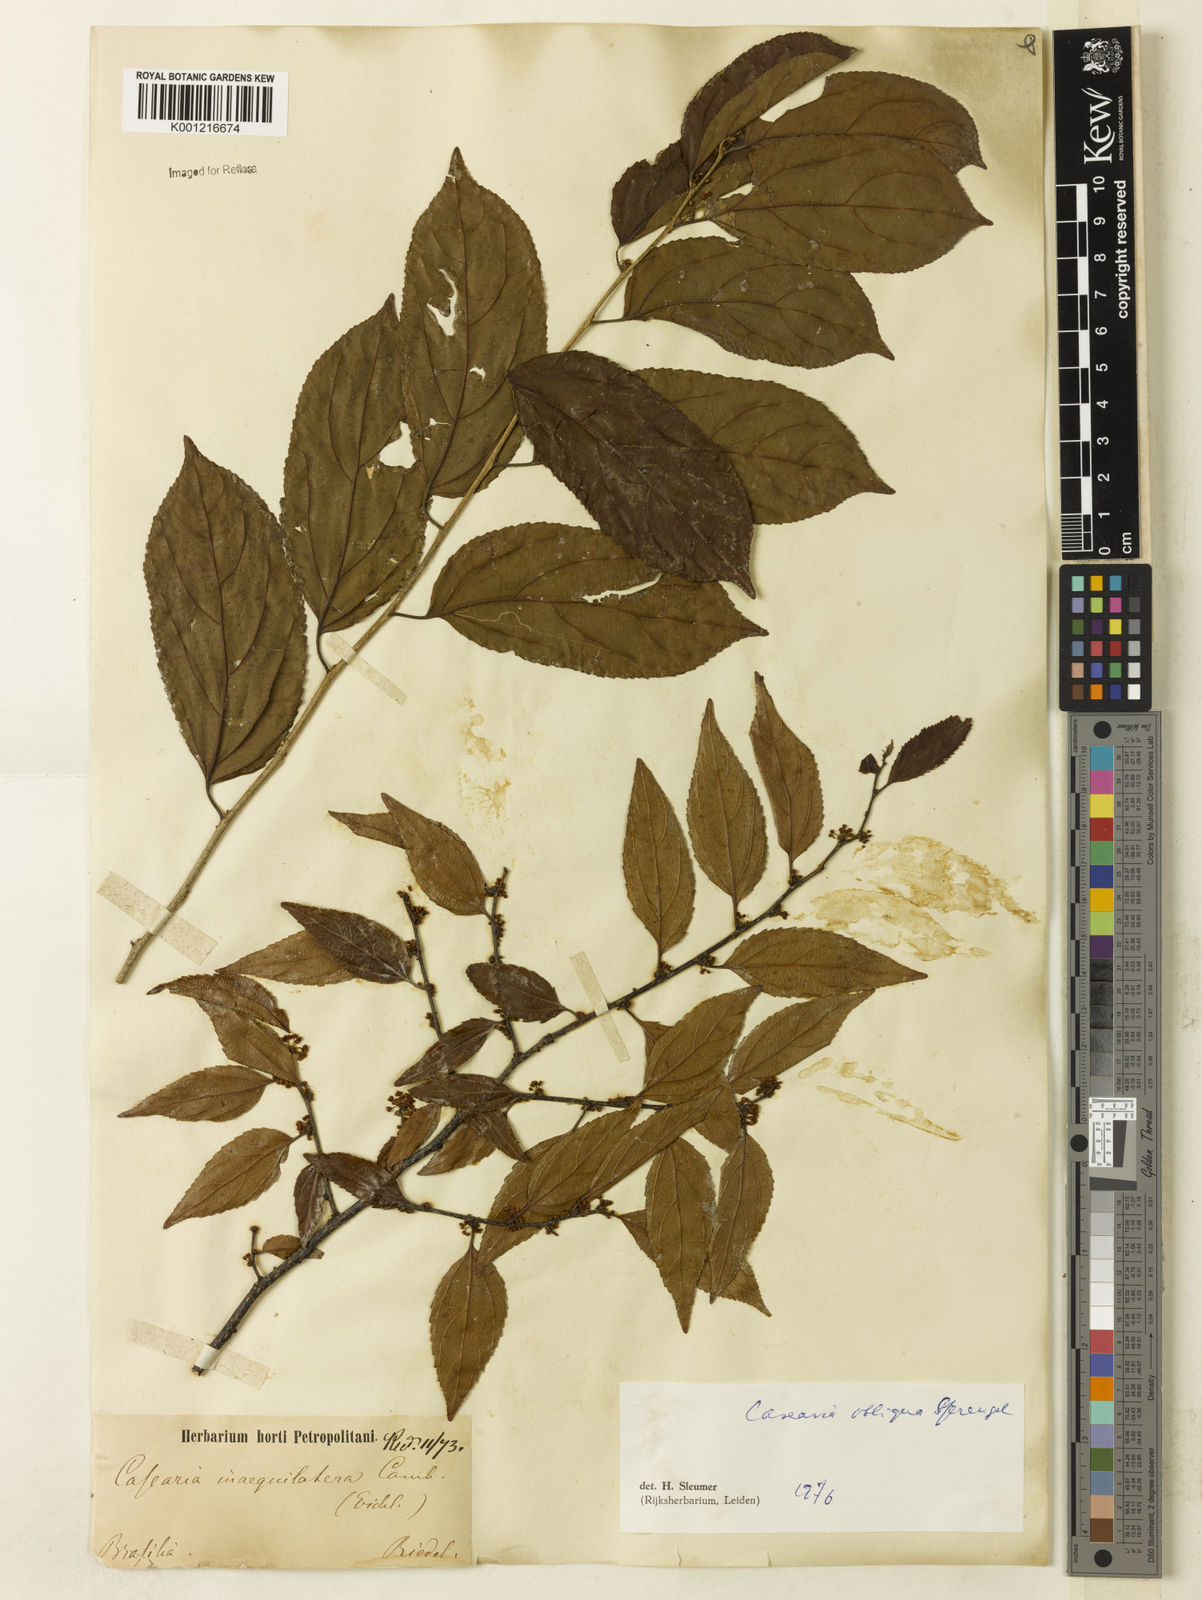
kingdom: Plantae
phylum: Tracheophyta
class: Magnoliopsida
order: Malpighiales
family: Salicaceae
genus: Casearia
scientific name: Casearia obliqua
